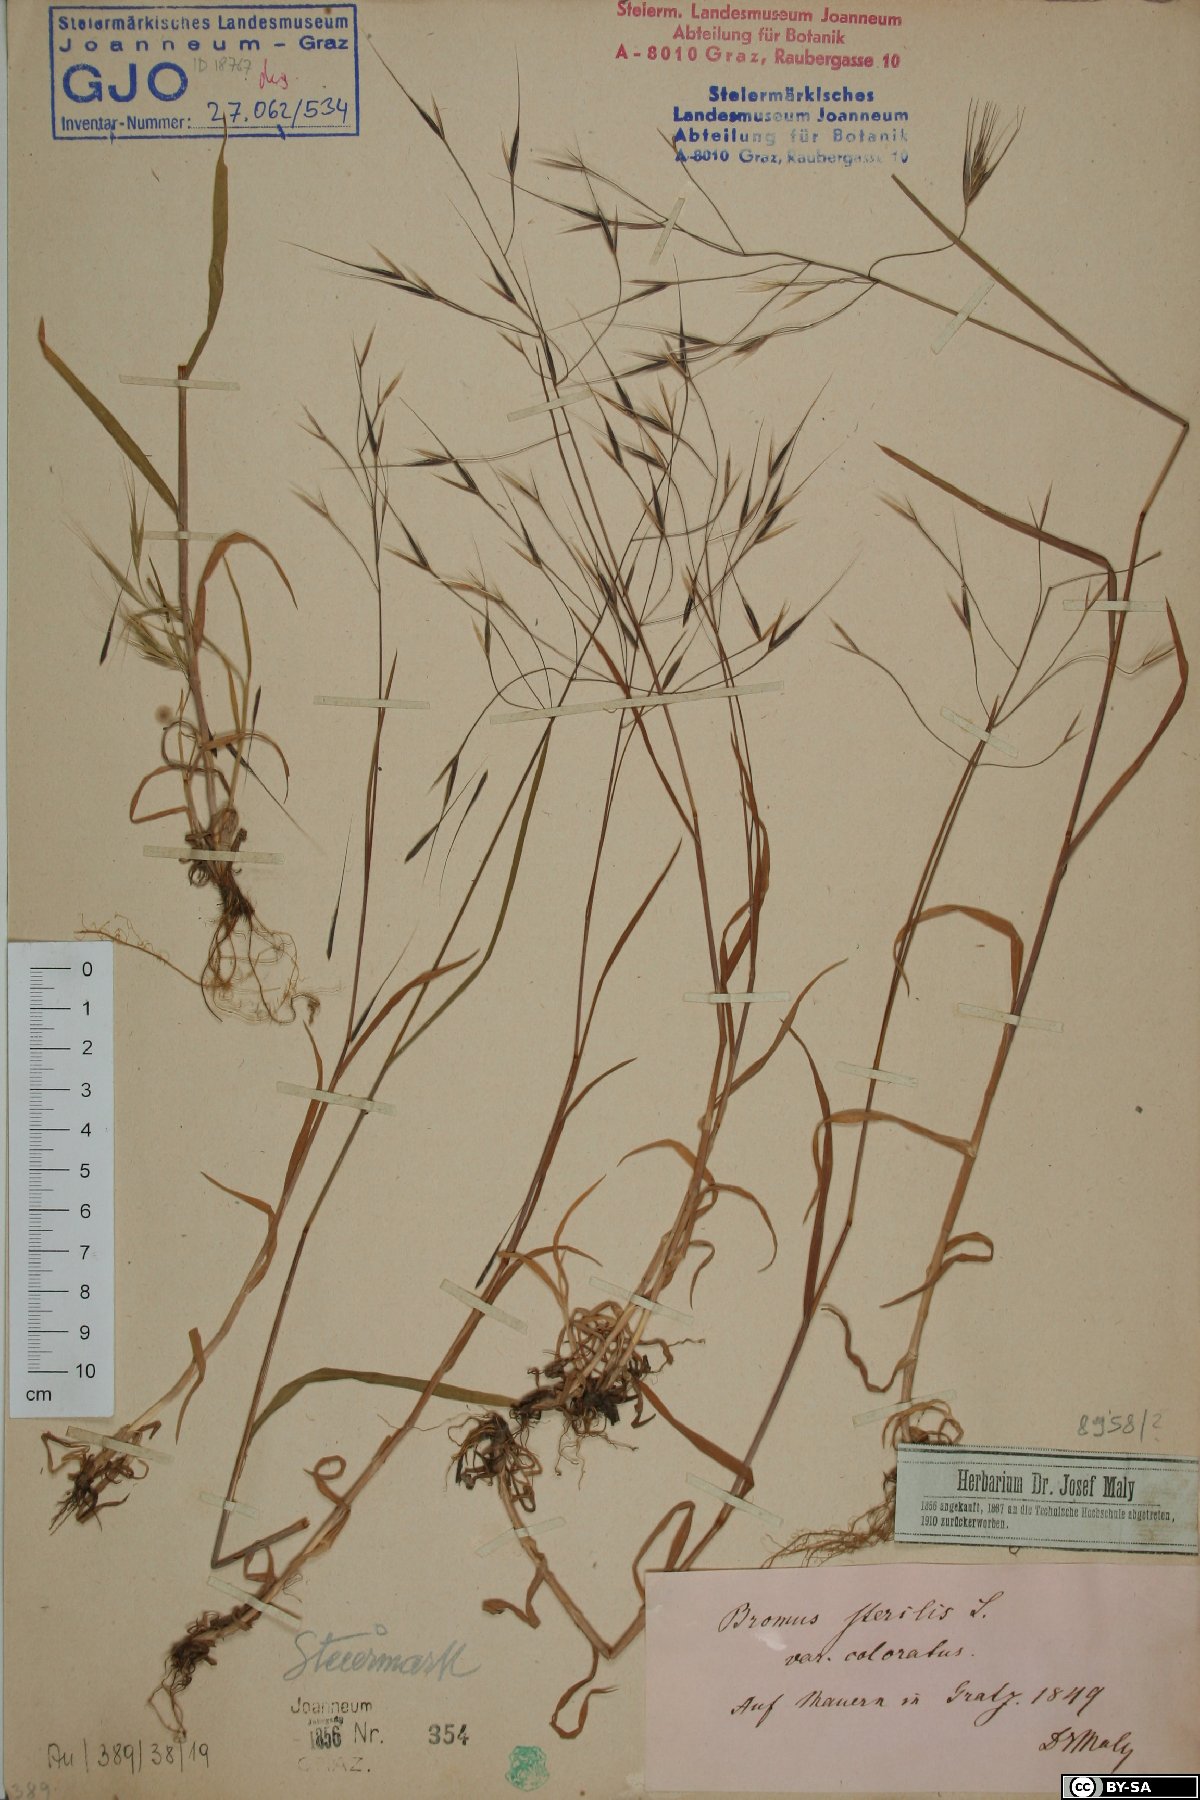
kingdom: Plantae
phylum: Tracheophyta
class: Liliopsida
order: Poales
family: Poaceae
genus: Bromus
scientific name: Bromus sterilis
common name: Poverty brome
